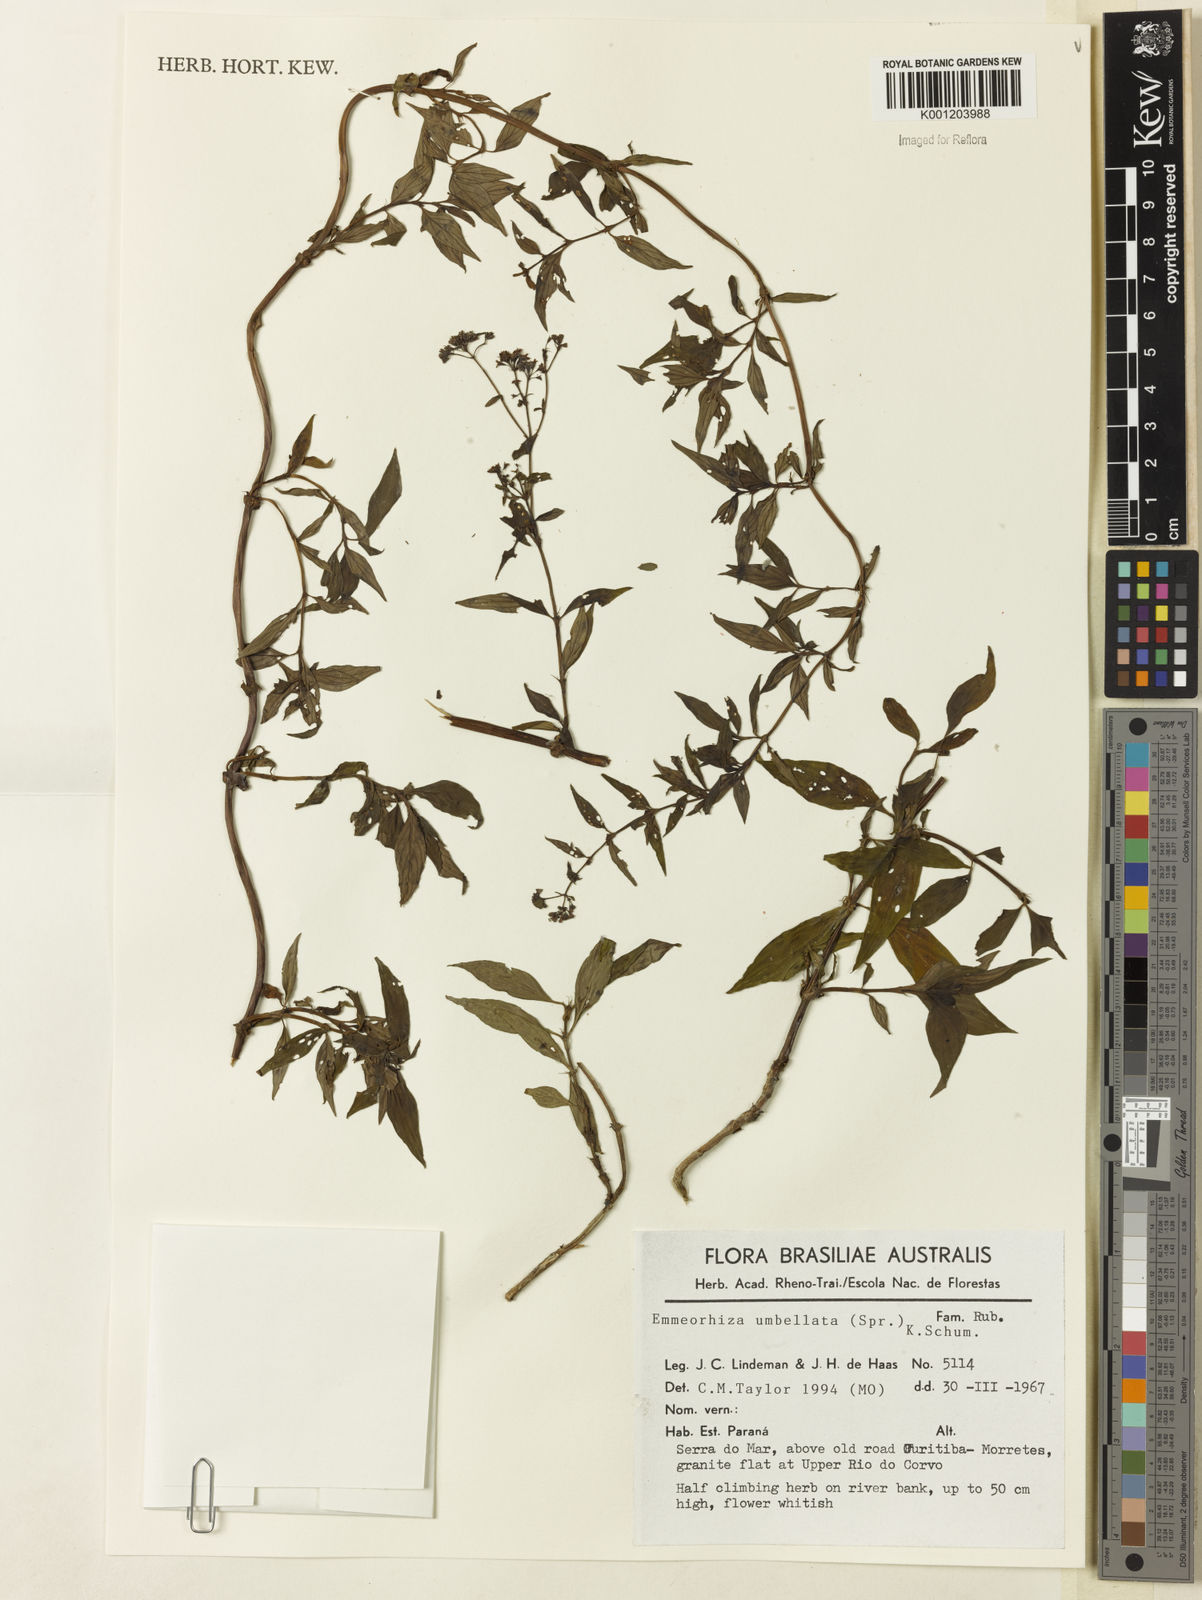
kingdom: Plantae
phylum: Tracheophyta
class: Magnoliopsida
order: Gentianales
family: Rubiaceae
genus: Emmeorhiza
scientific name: Emmeorhiza umbellata
